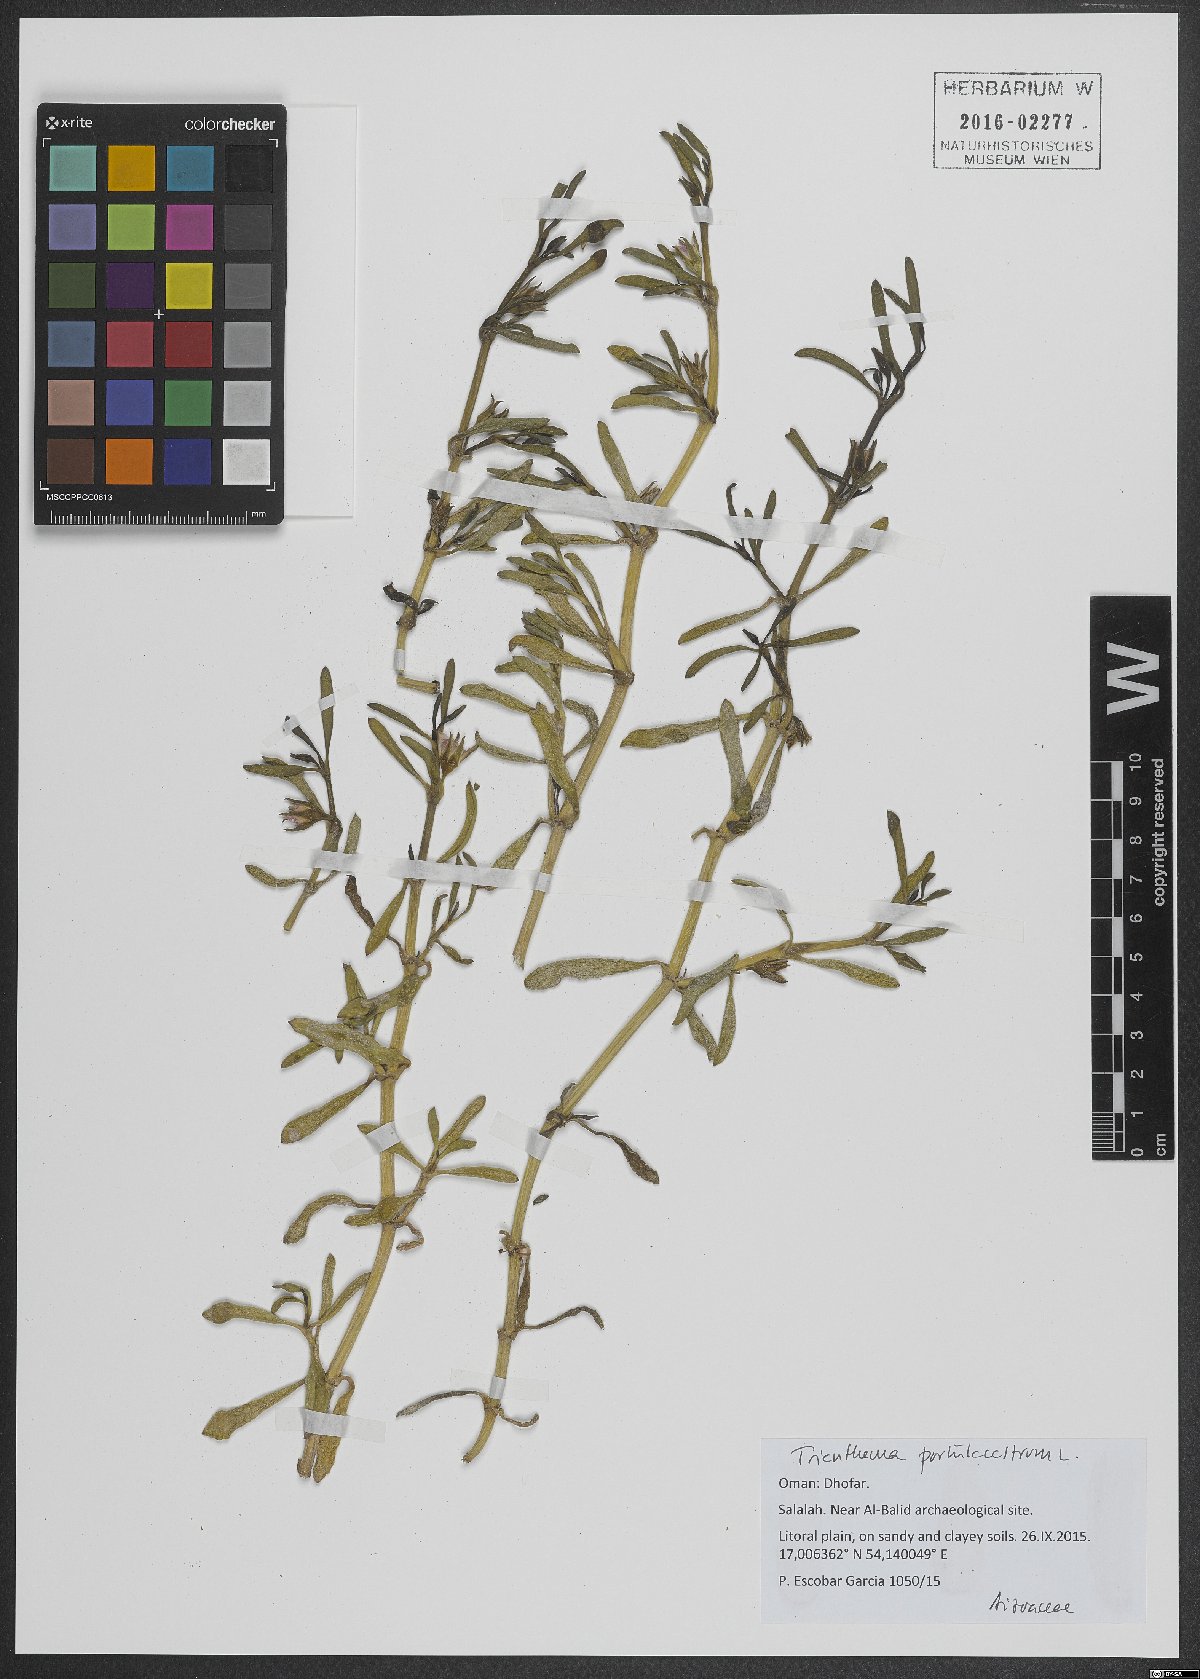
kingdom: Plantae
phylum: Tracheophyta
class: Magnoliopsida
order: Caryophyllales
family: Aizoaceae
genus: Sesuvium
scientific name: Sesuvium portulacastrum
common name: Sea-purslane
